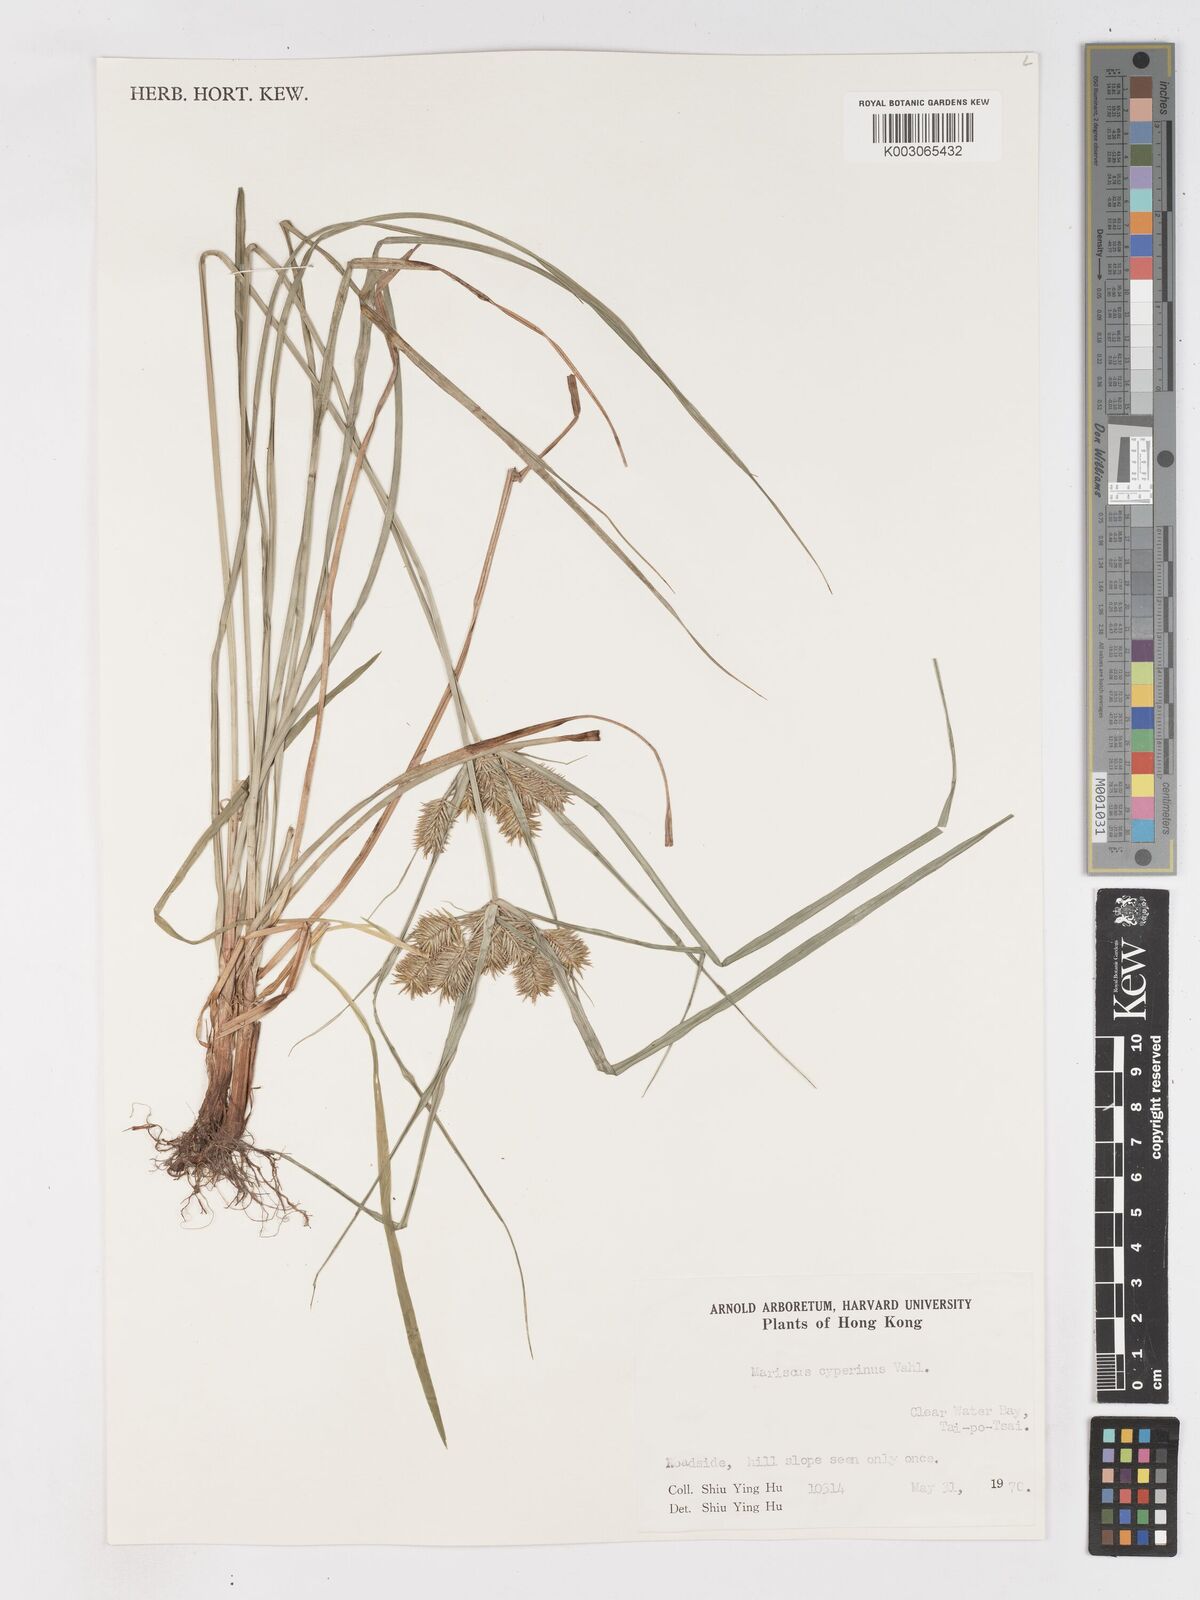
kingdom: Plantae
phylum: Tracheophyta
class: Liliopsida
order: Poales
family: Cyperaceae
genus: Cyperus
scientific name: Cyperus cyperinus
